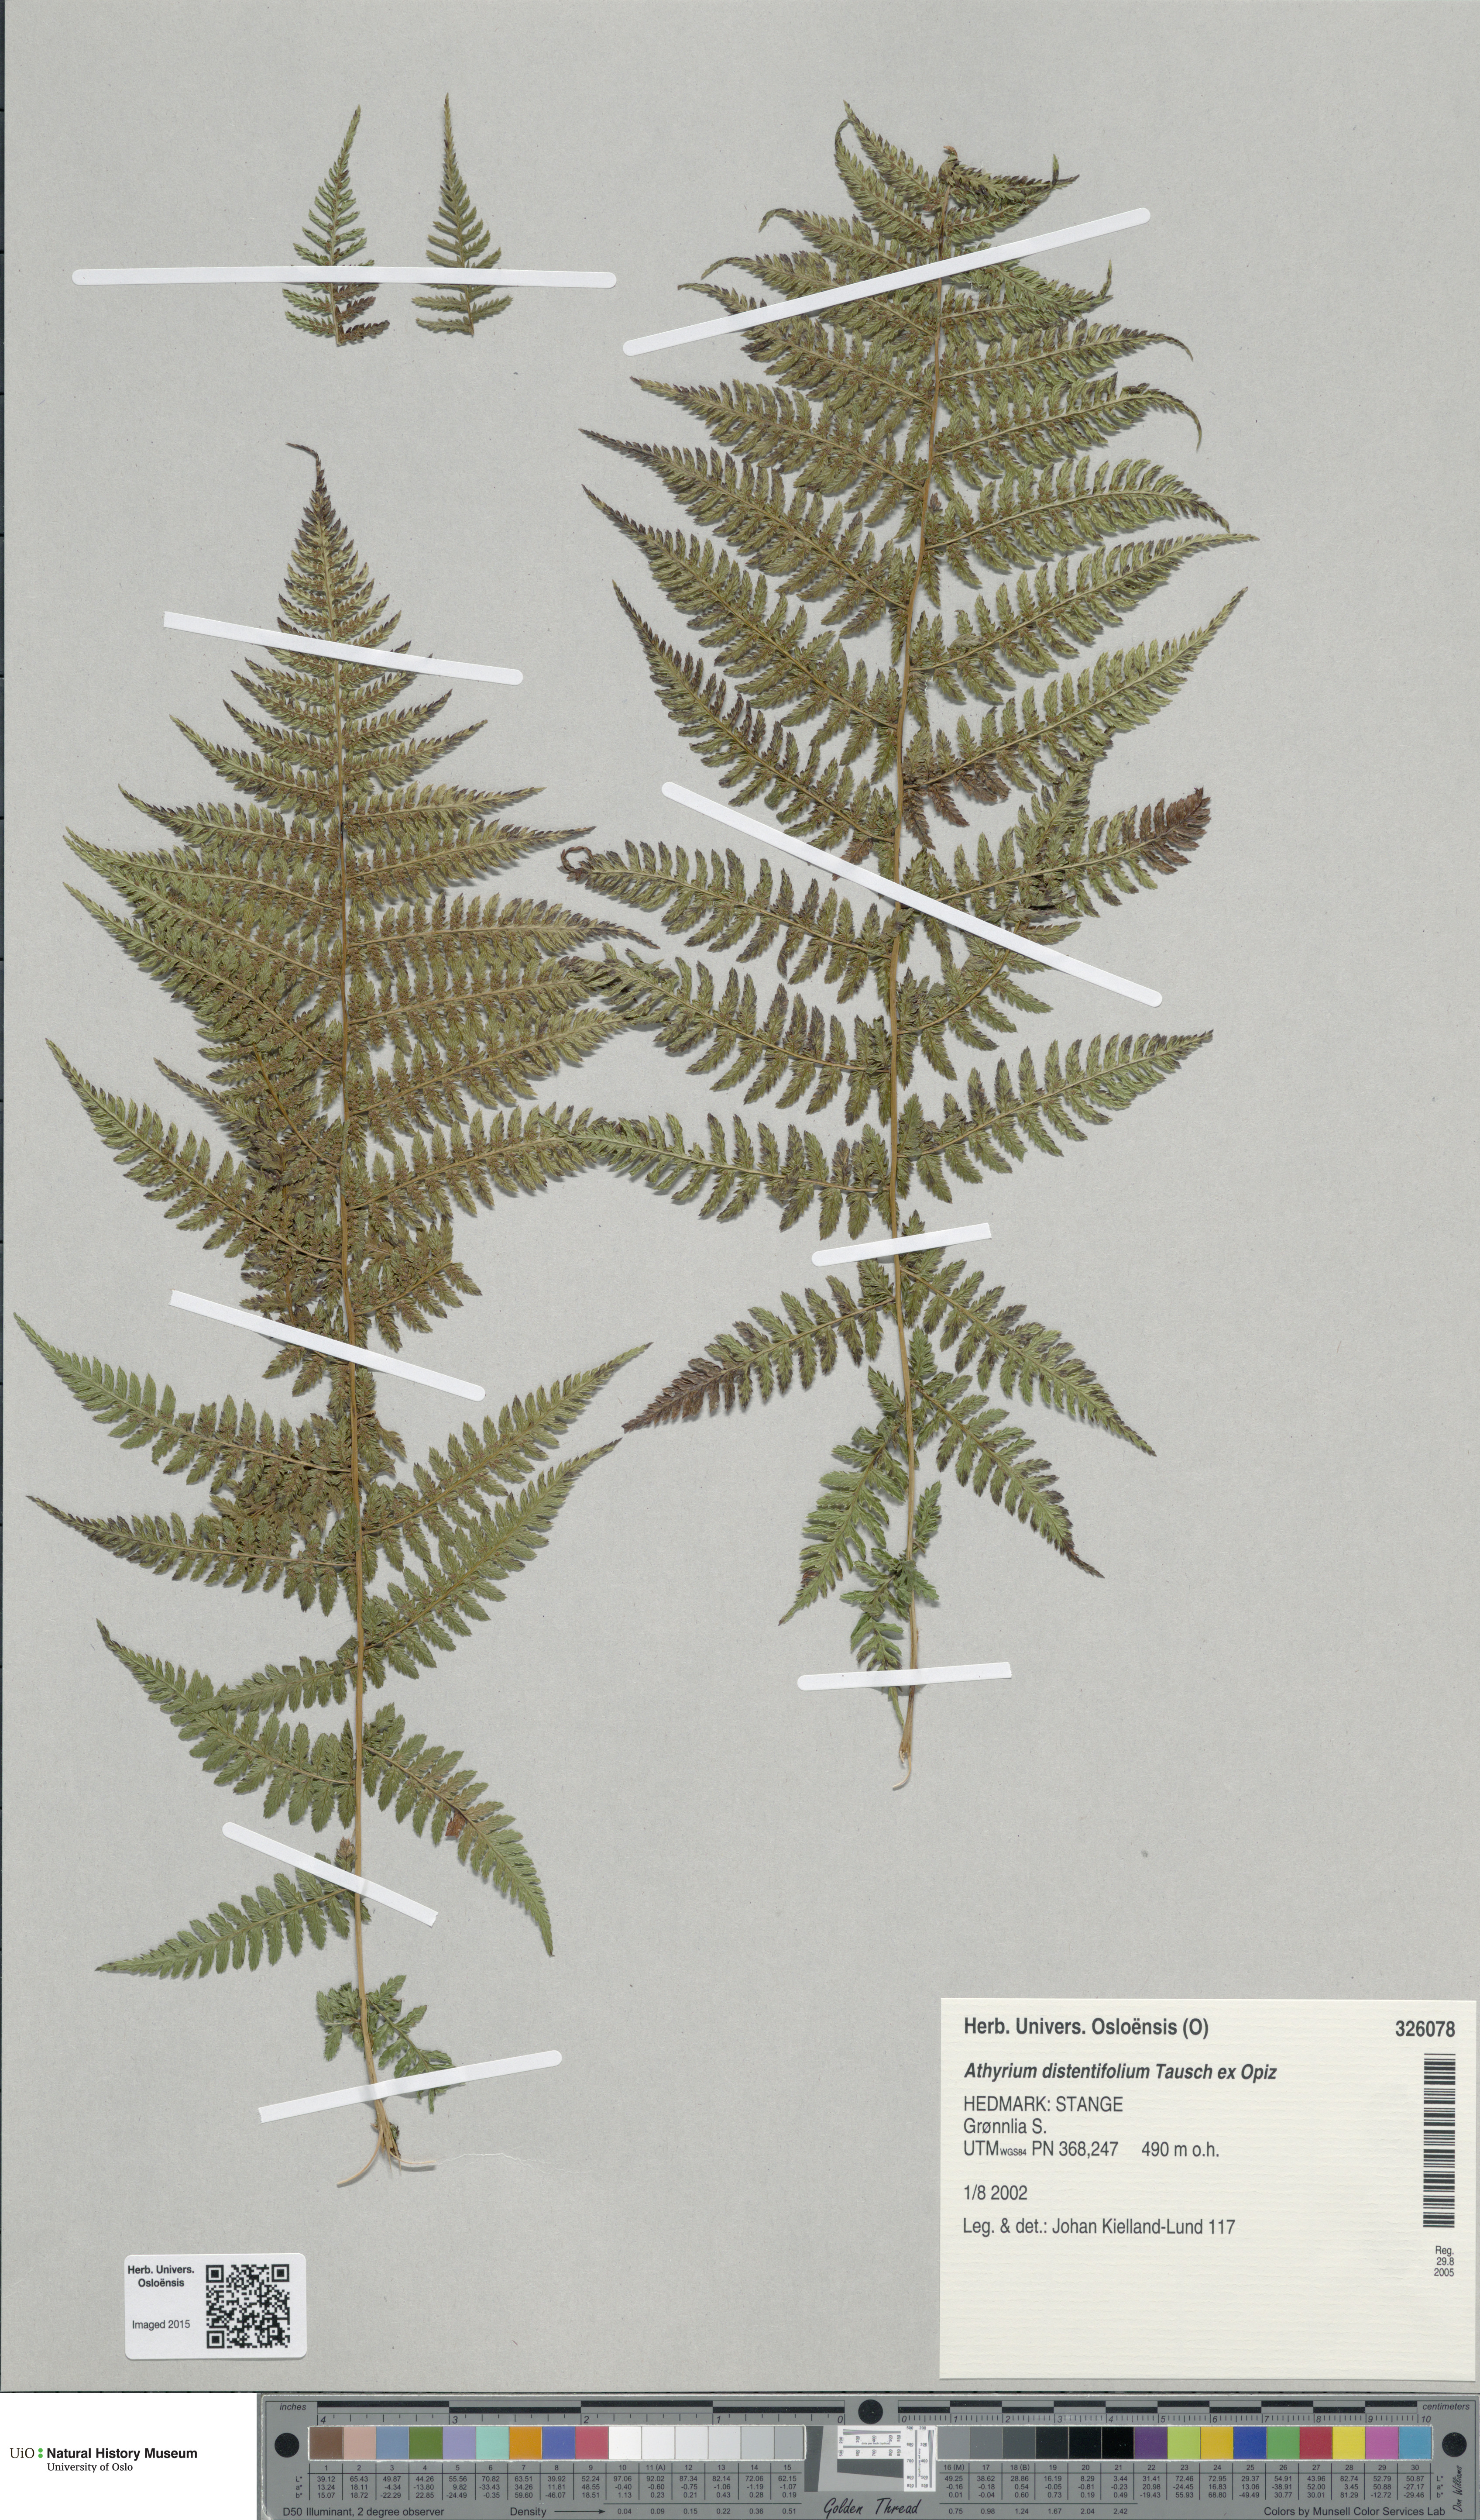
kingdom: Plantae
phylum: Tracheophyta
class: Polypodiopsida
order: Polypodiales
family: Athyriaceae
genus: Pseudathyrium
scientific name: Pseudathyrium alpestre
